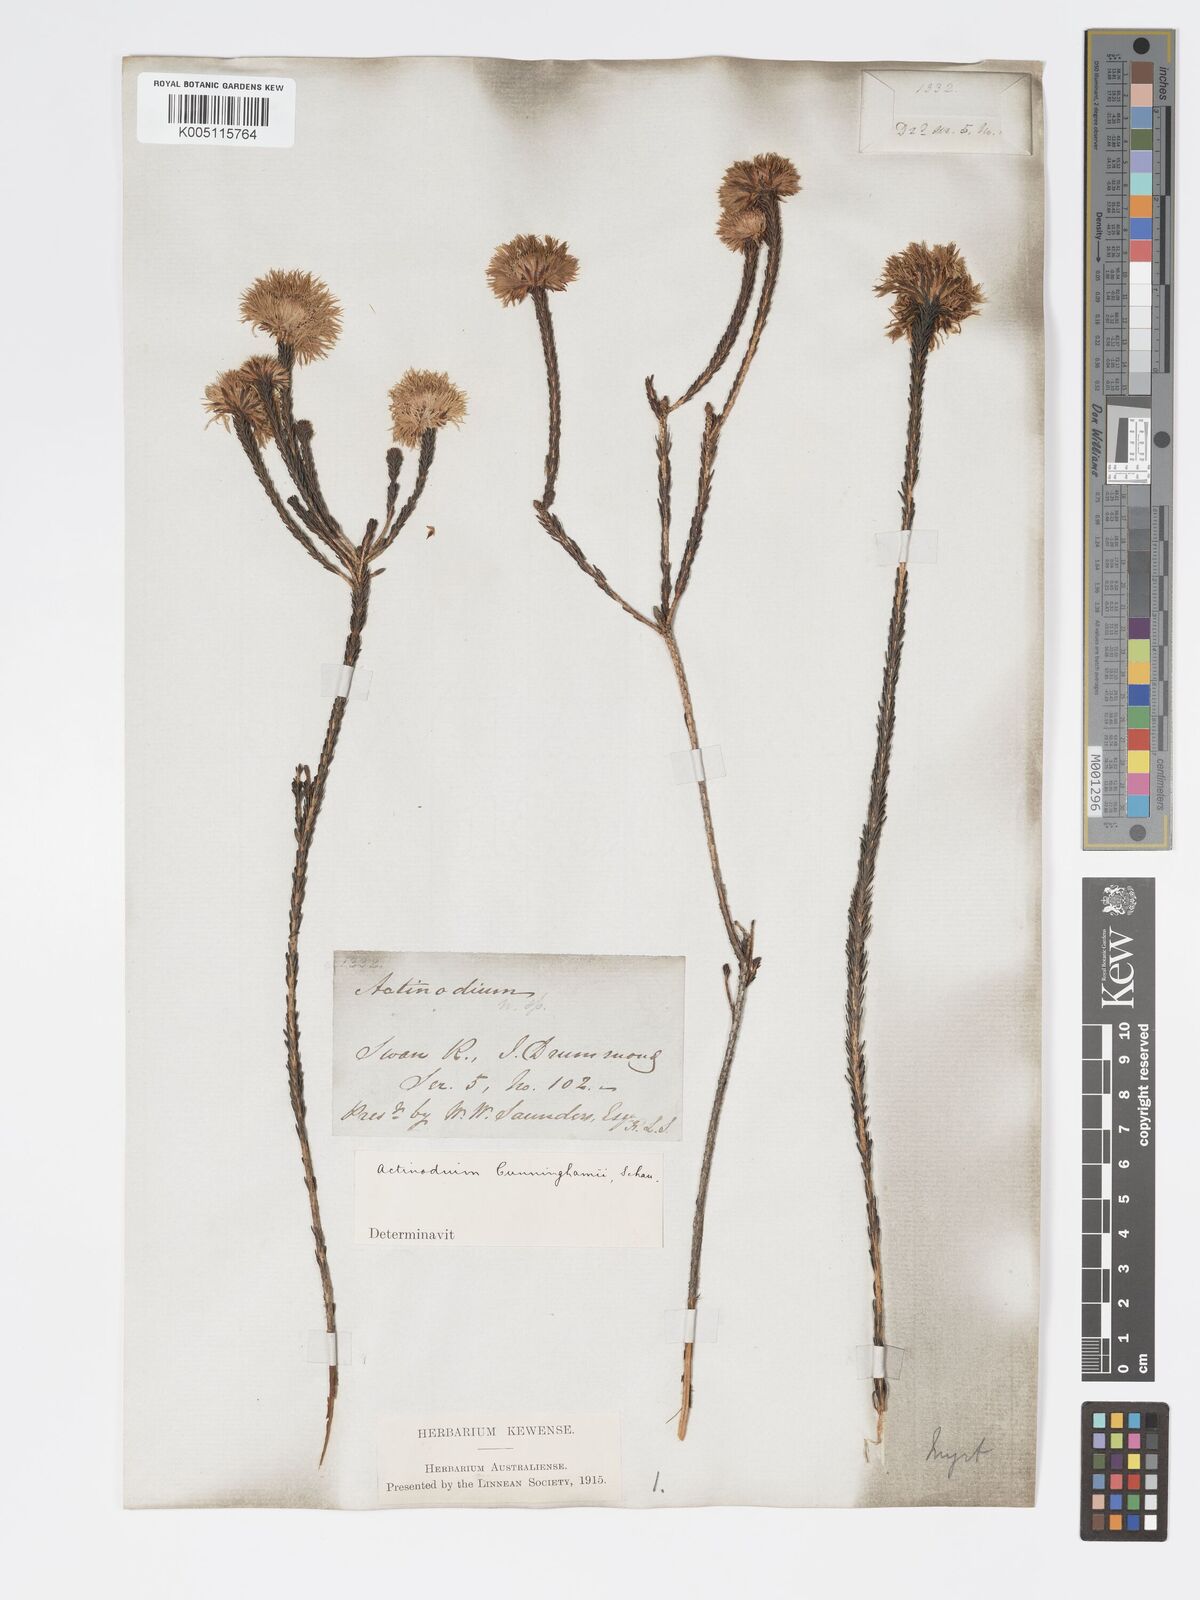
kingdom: Plantae
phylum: Tracheophyta
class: Magnoliopsida
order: Myrtales
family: Myrtaceae
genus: Actinodium
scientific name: Actinodium cunninghamii
